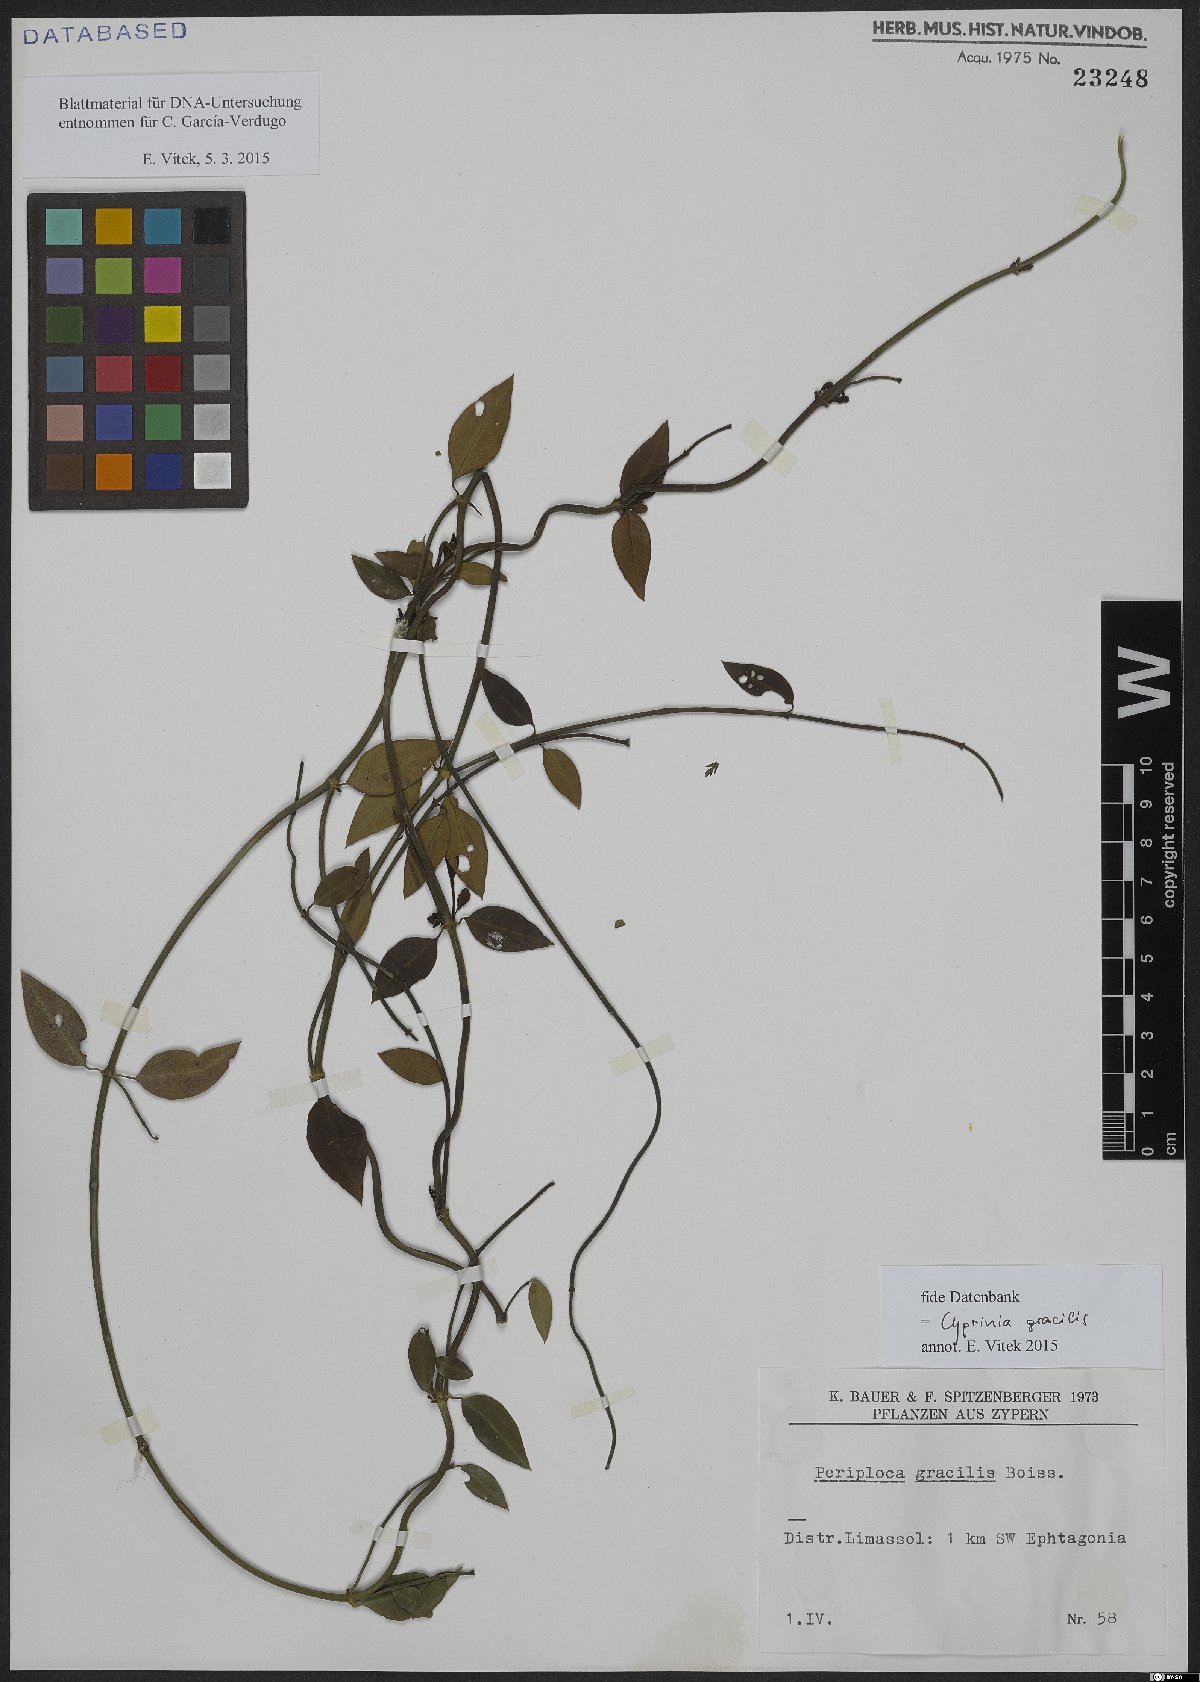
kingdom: Plantae
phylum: Tracheophyta
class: Magnoliopsida
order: Gentianales
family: Apocynaceae
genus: Periploca
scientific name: Periploca gracilis
